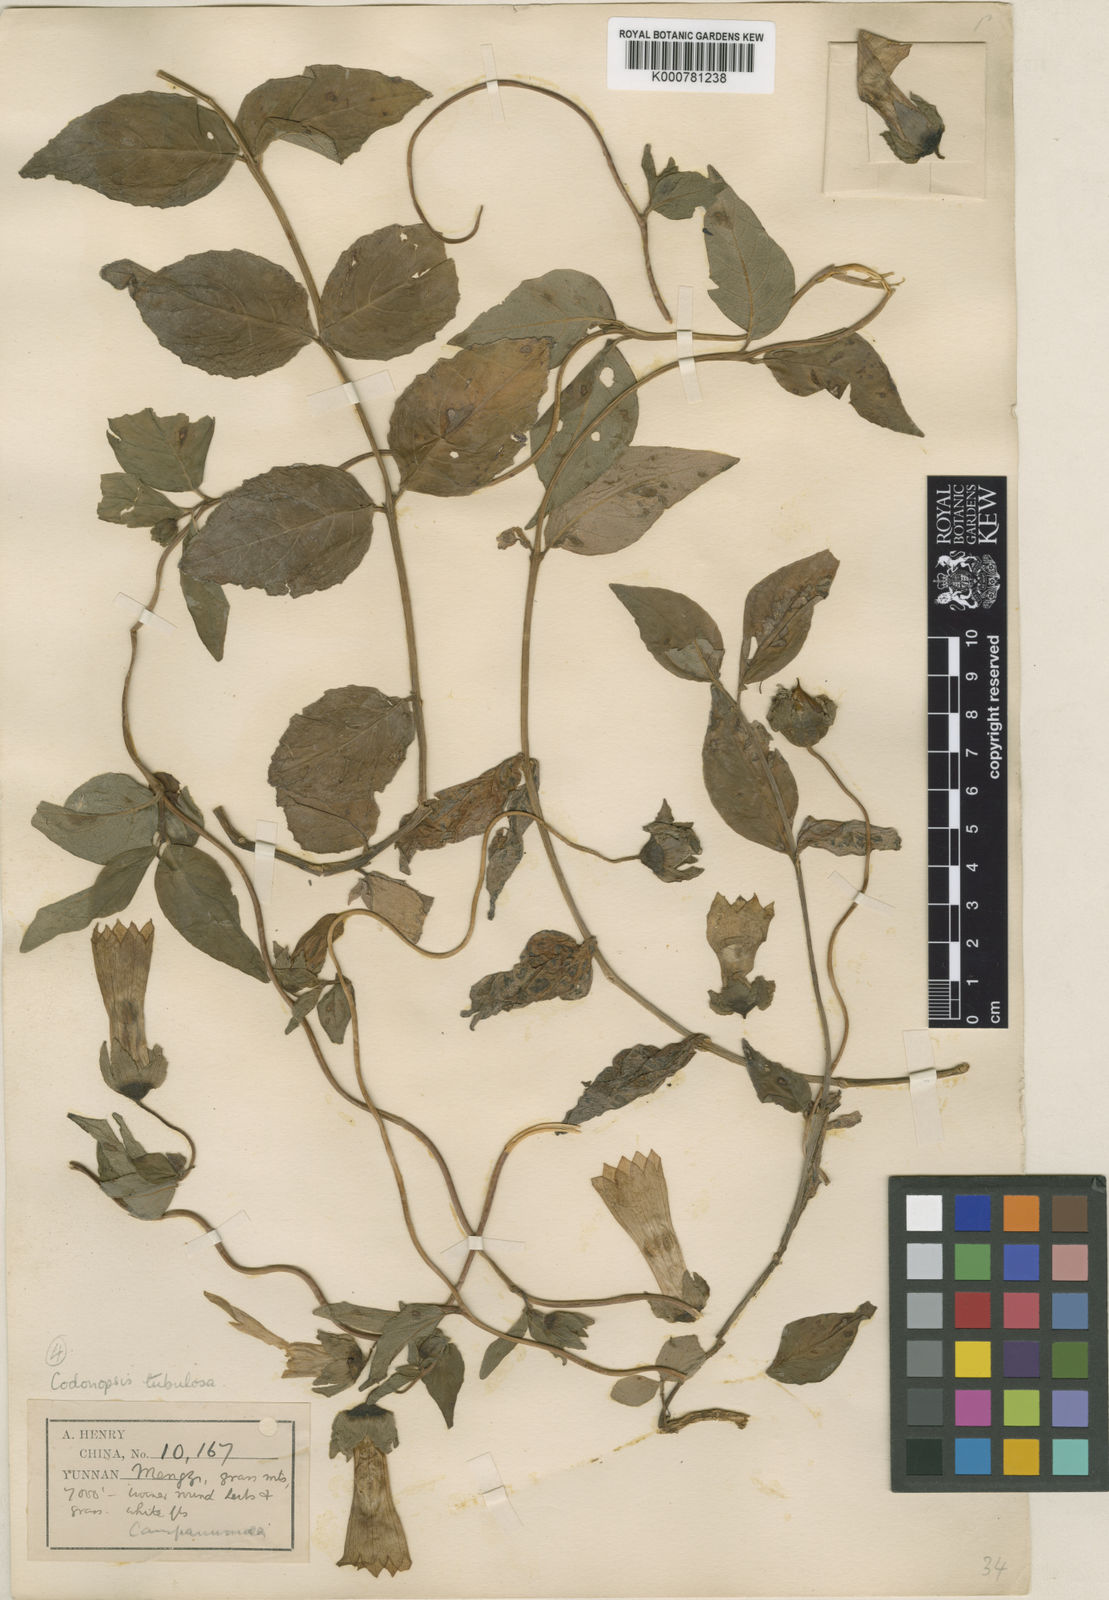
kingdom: Plantae
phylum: Tracheophyta
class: Magnoliopsida
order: Asterales
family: Campanulaceae
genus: Codonopsis
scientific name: Codonopsis tubulosa
